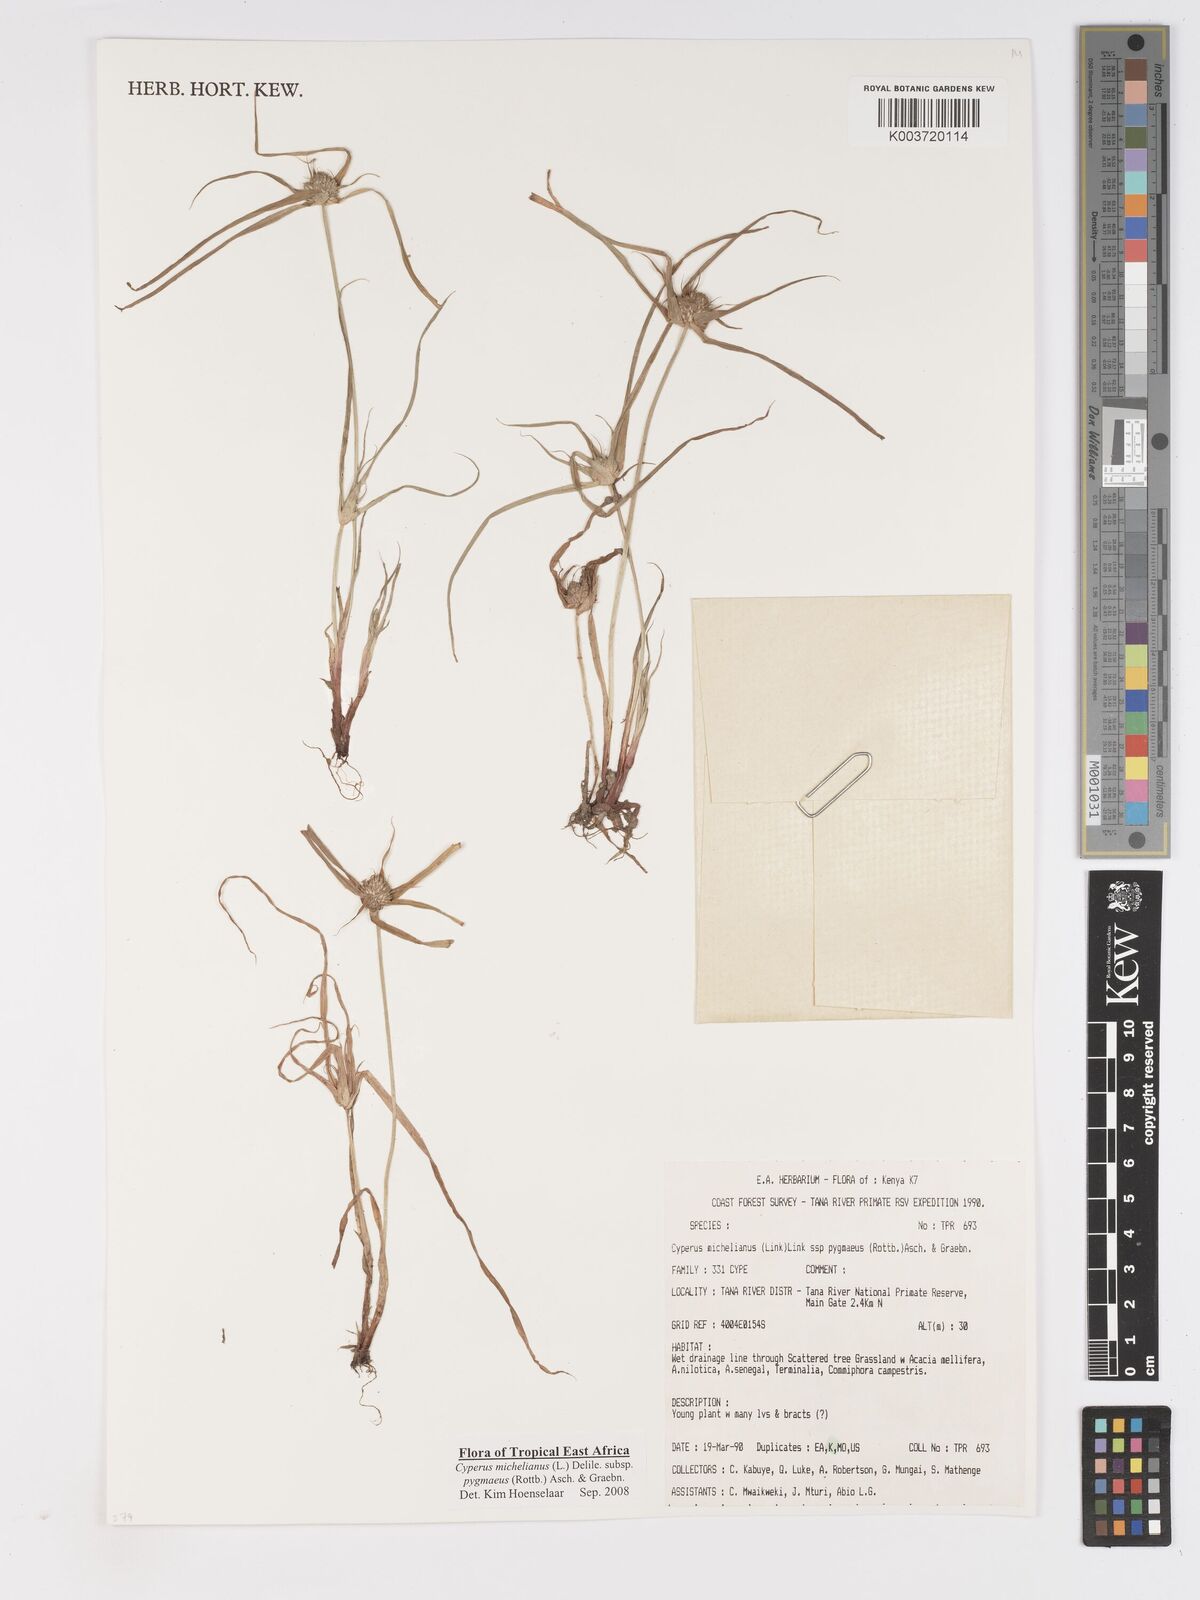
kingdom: Plantae
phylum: Tracheophyta
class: Liliopsida
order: Poales
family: Cyperaceae
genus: Cyperus
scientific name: Cyperus michelianus
